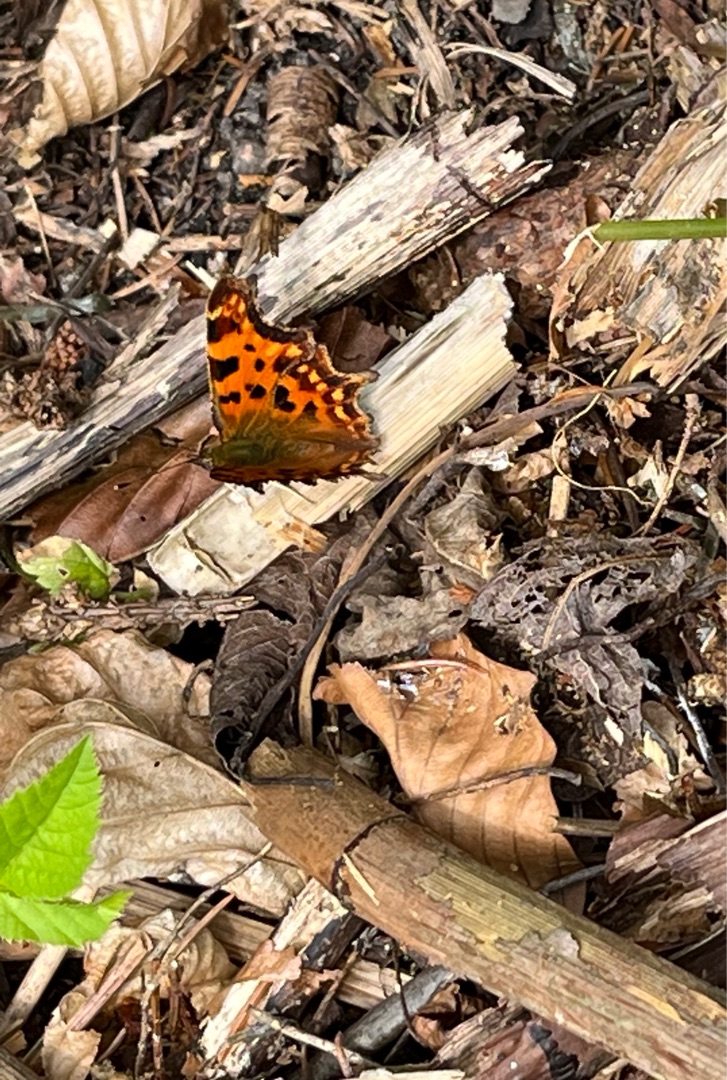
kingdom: Animalia
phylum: Arthropoda
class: Insecta
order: Lepidoptera
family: Nymphalidae
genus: Polygonia
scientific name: Polygonia c-album
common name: Det hvide C
